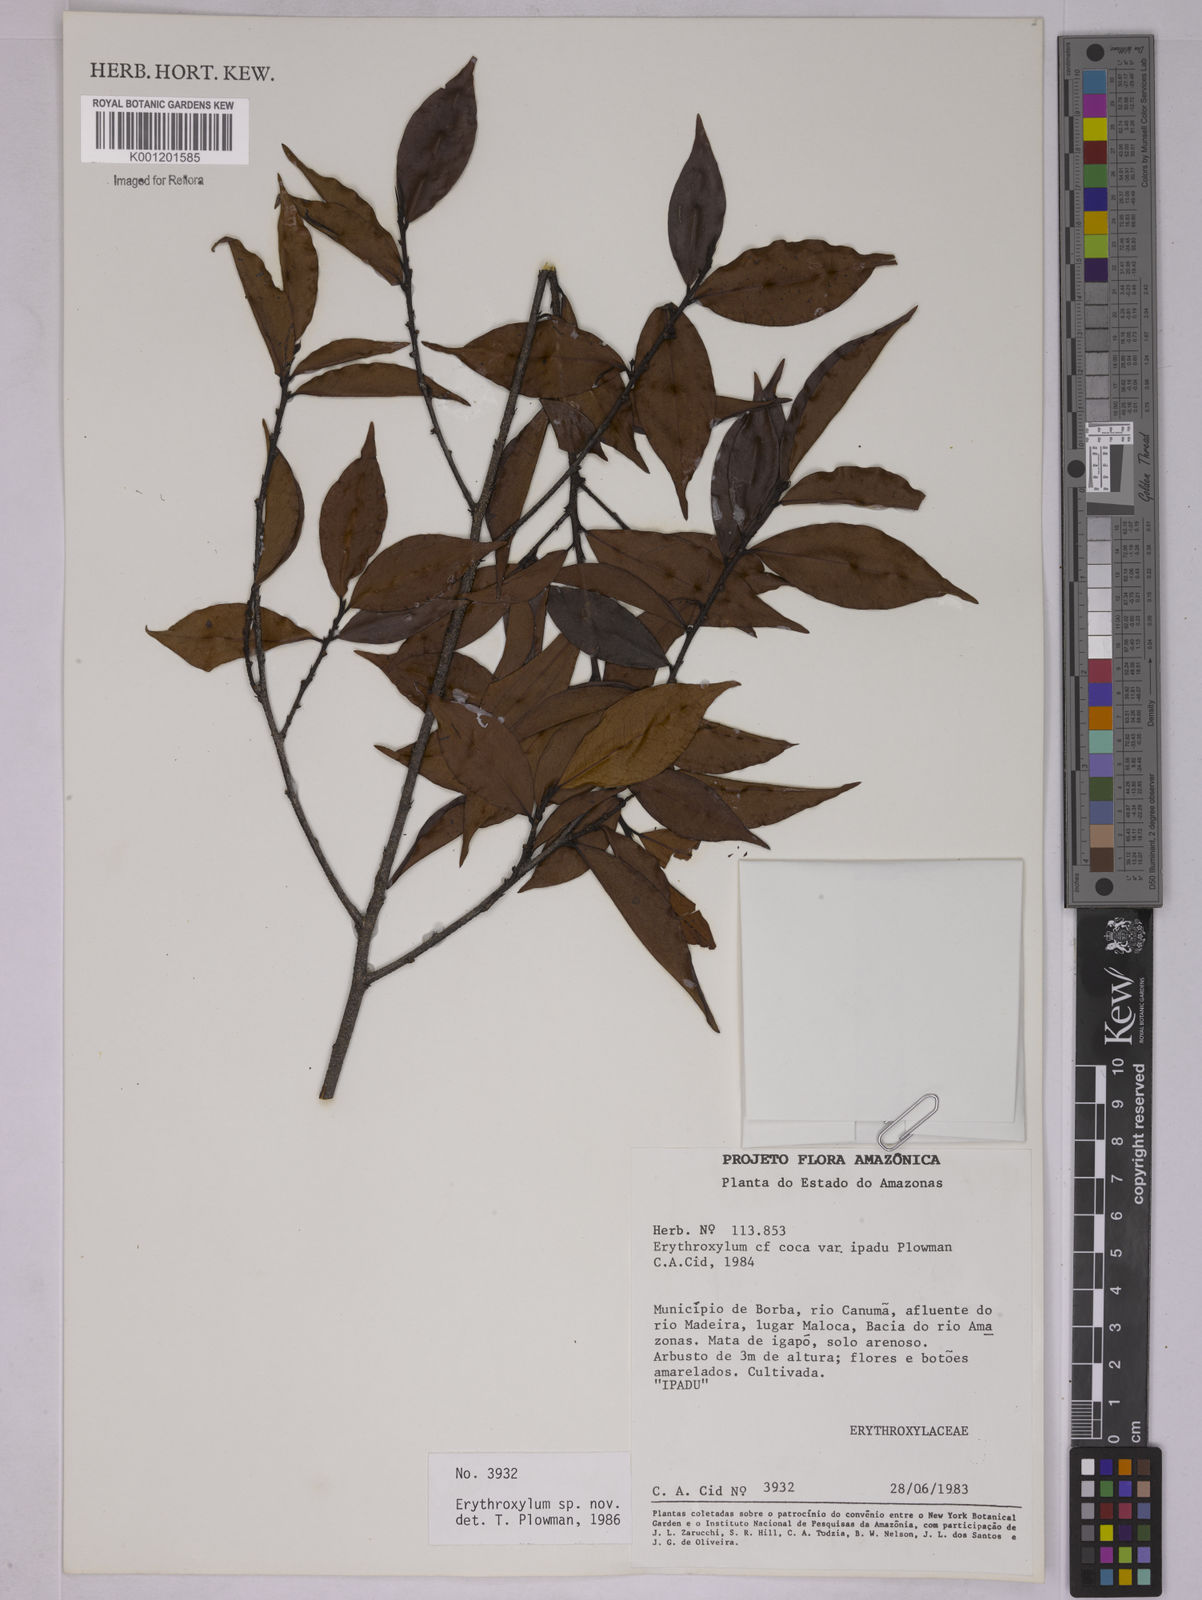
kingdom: Plantae
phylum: Tracheophyta
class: Magnoliopsida
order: Malpighiales
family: Erythroxylaceae
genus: Erythroxylum
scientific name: Erythroxylum
